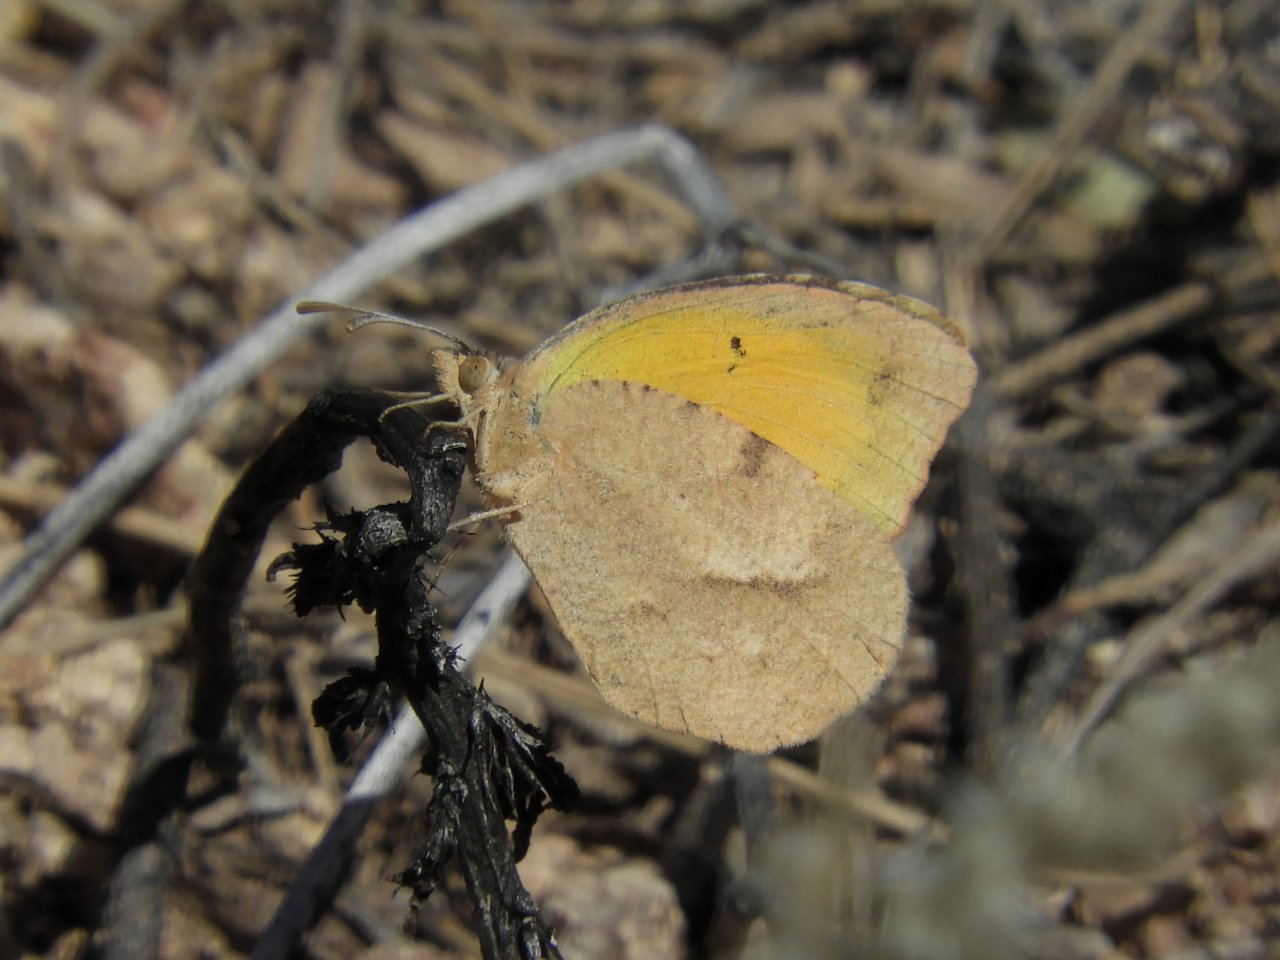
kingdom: Animalia
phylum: Arthropoda
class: Insecta
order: Lepidoptera
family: Pieridae
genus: Abaeis
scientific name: Abaeis nicippe
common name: Sleepy Orange
